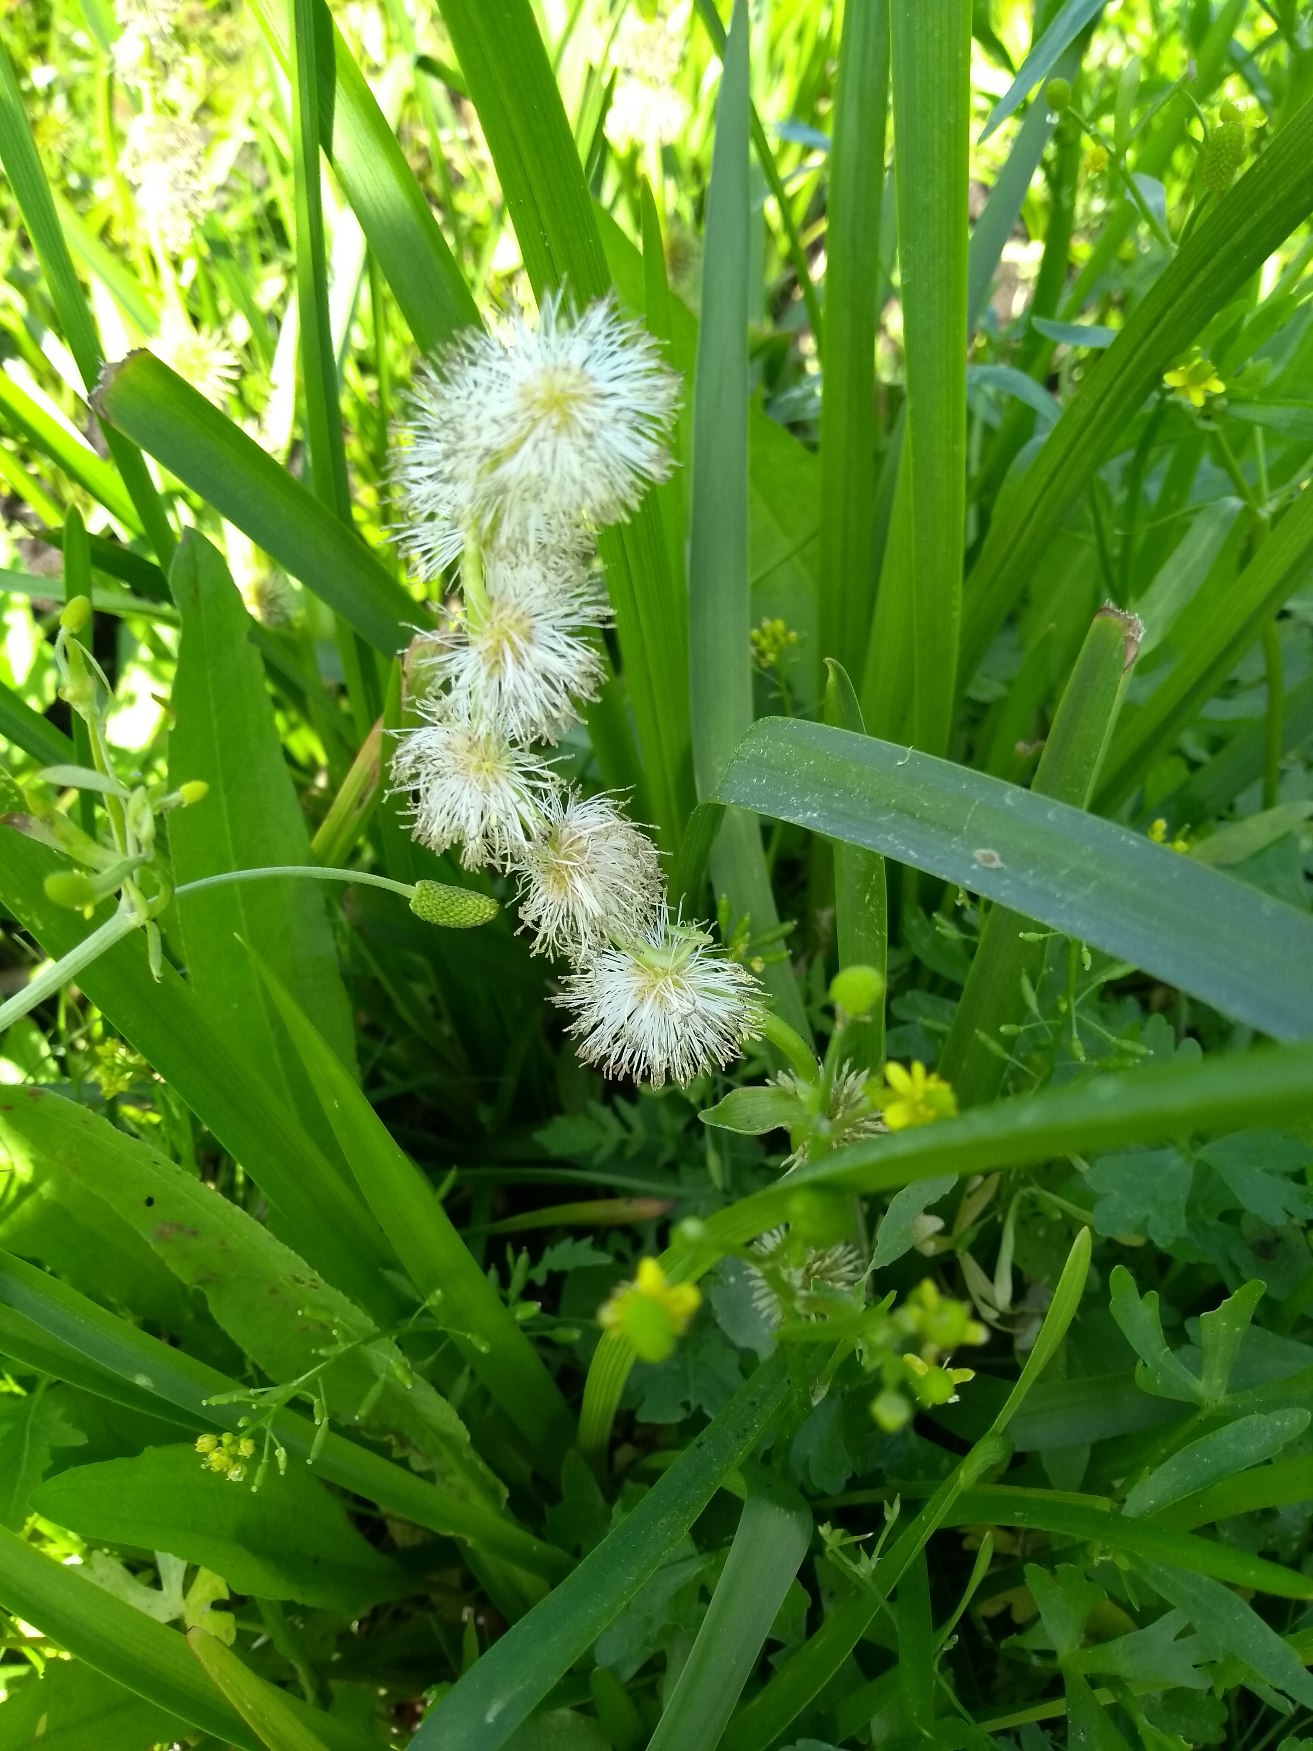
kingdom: Plantae
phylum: Tracheophyta
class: Liliopsida
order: Poales
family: Typhaceae
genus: Sparganium
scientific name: Sparganium emersum
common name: Enkelt pindsvineknop
